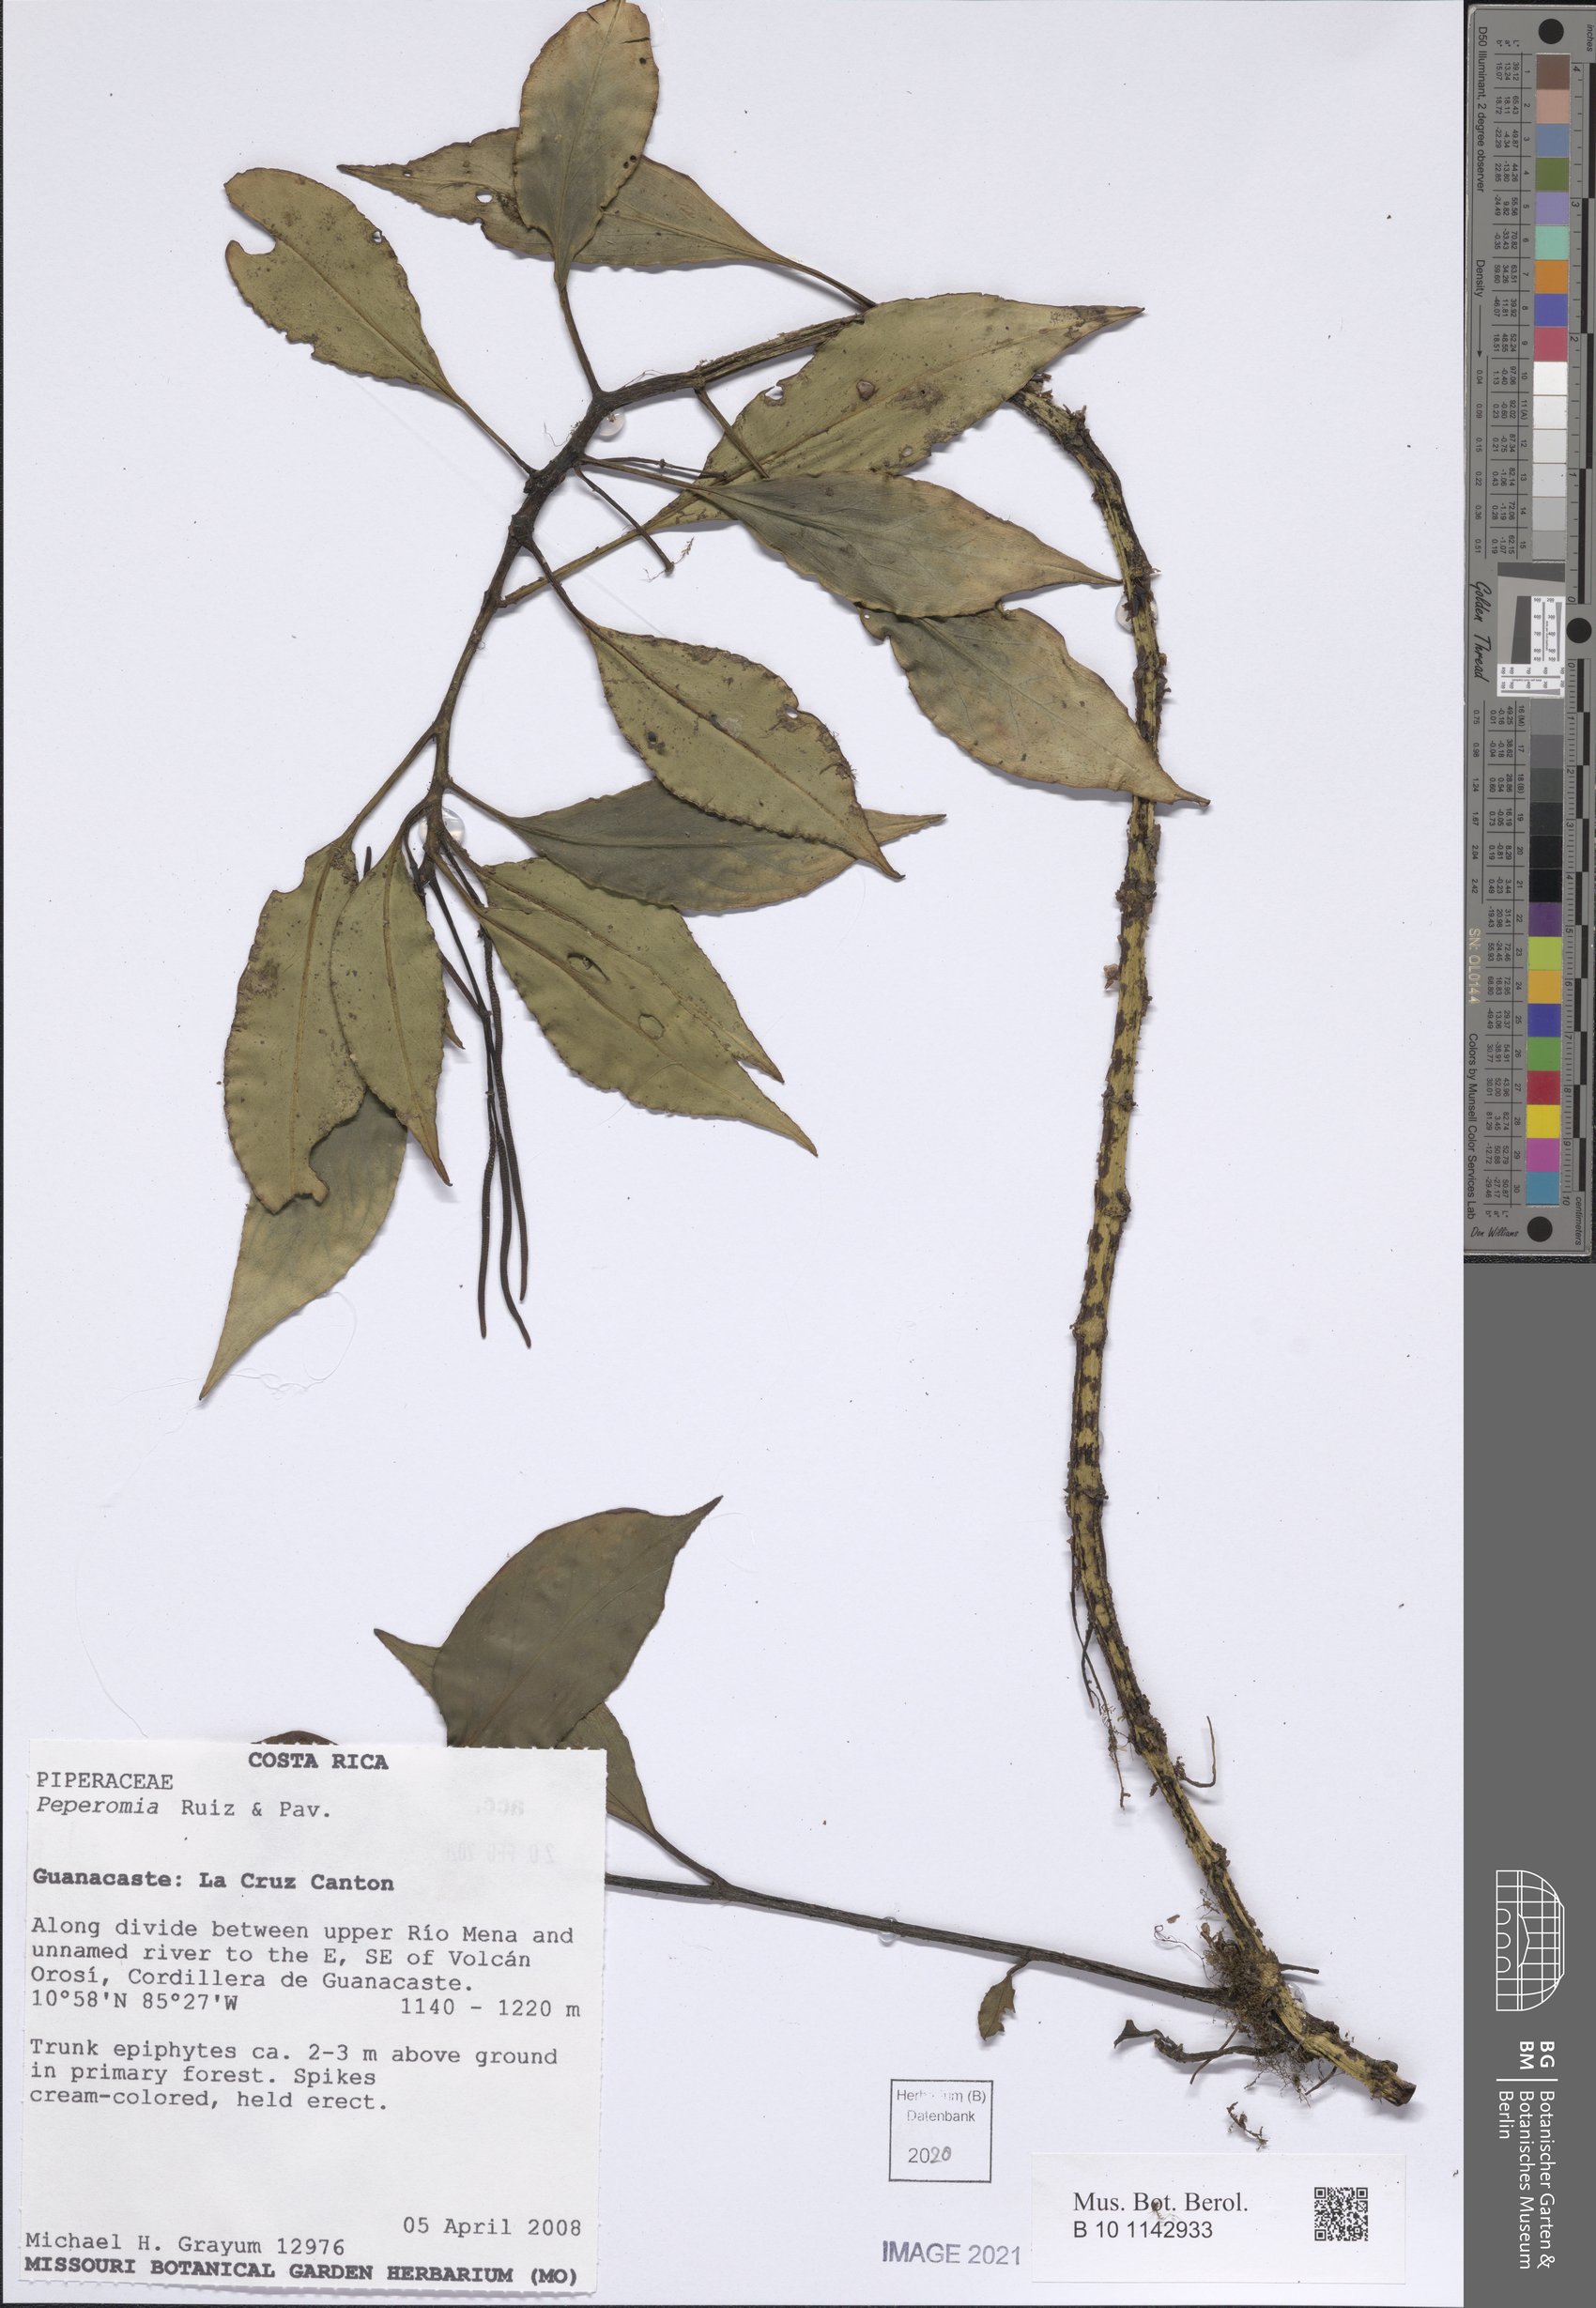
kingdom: Plantae
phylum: Tracheophyta
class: Magnoliopsida
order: Piperales
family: Piperaceae
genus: Peperomia
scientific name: Peperomia
